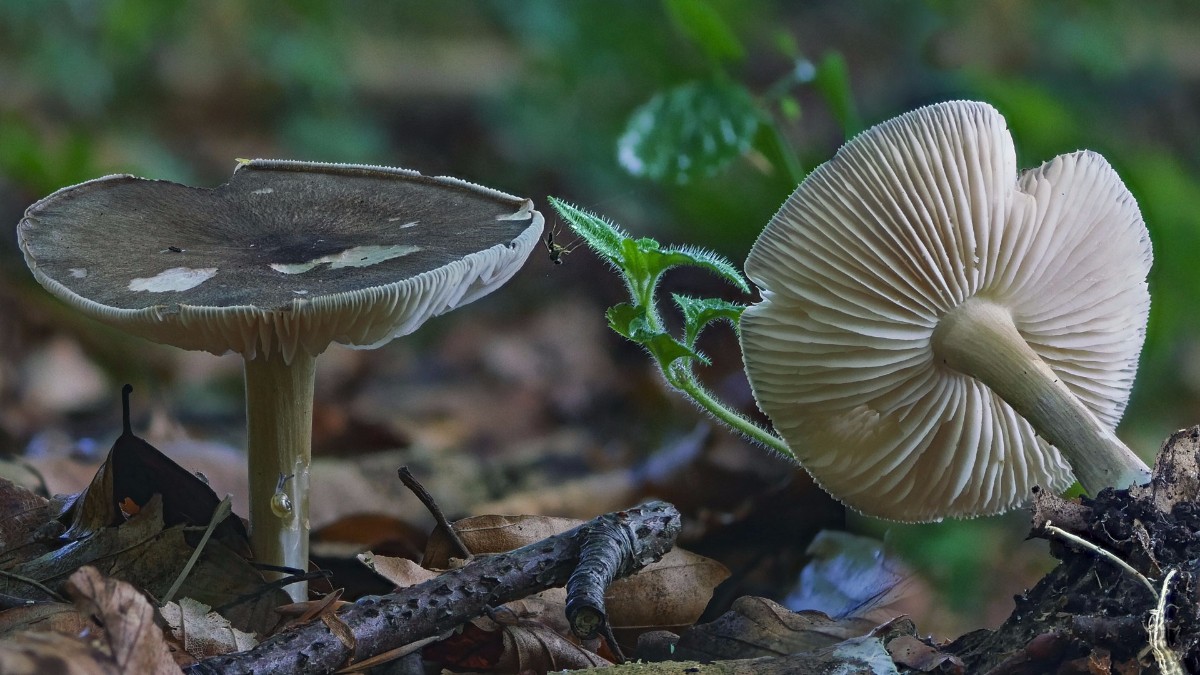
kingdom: Fungi
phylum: Basidiomycota
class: Agaricomycetes
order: Agaricales
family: Tricholomataceae
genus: Megacollybia
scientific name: Megacollybia platyphylla
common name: bredbladet væbnerhat
